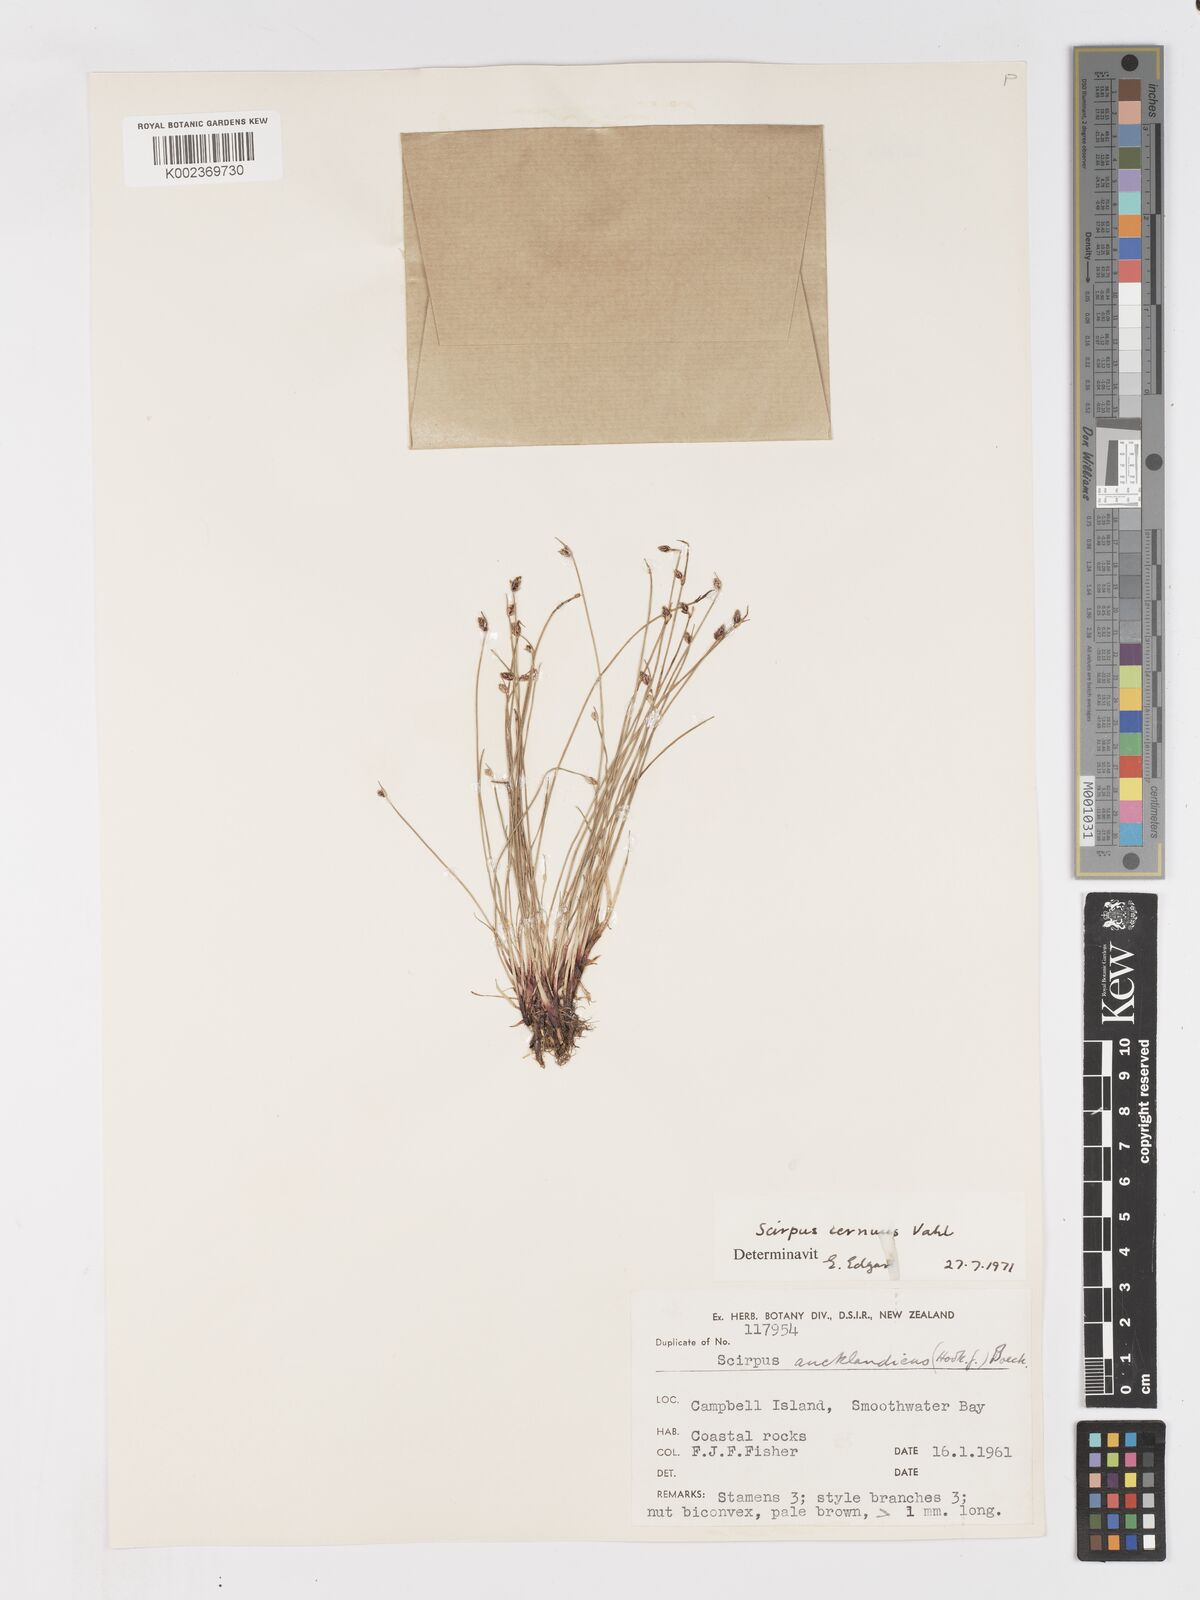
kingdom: Plantae
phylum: Tracheophyta
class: Liliopsida
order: Poales
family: Cyperaceae
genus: Isolepis
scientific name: Isolepis cernua
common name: Slender club-rush
